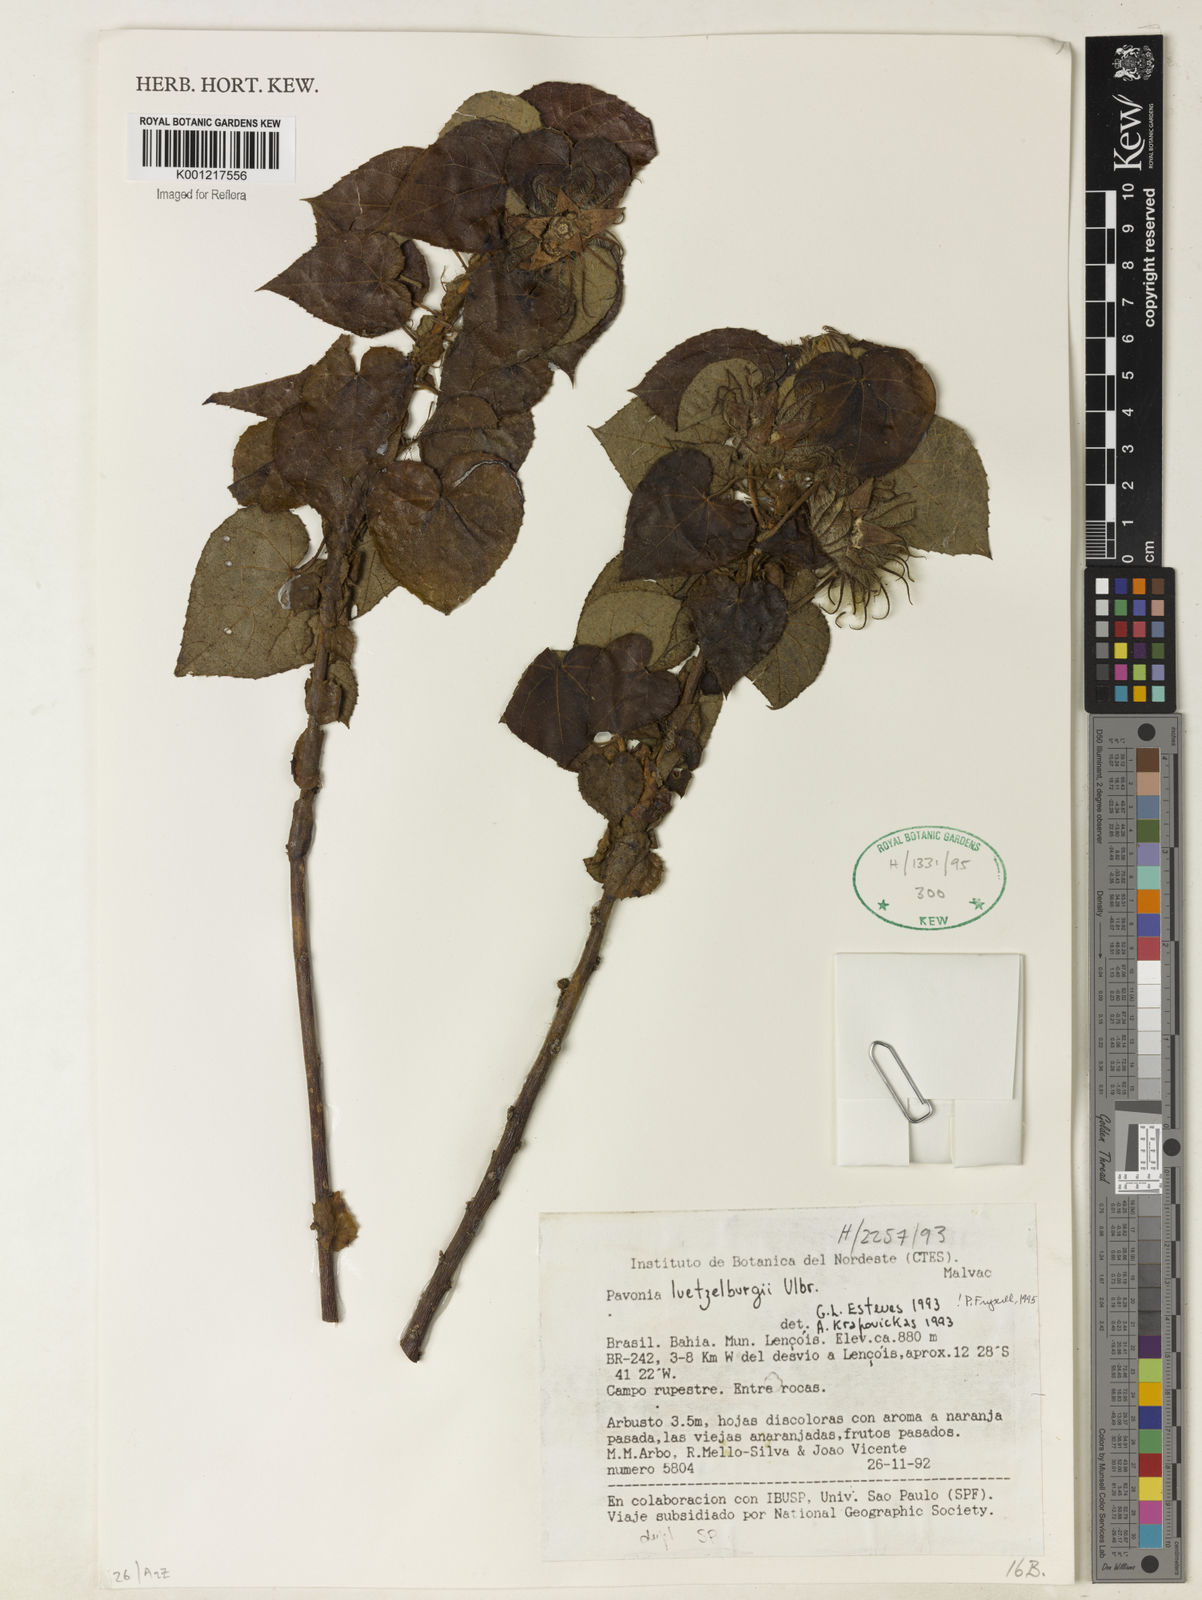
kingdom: Plantae
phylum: Tracheophyta
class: Magnoliopsida
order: Malvales
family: Malvaceae
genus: Pavonia
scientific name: Pavonia luetzelburgii
